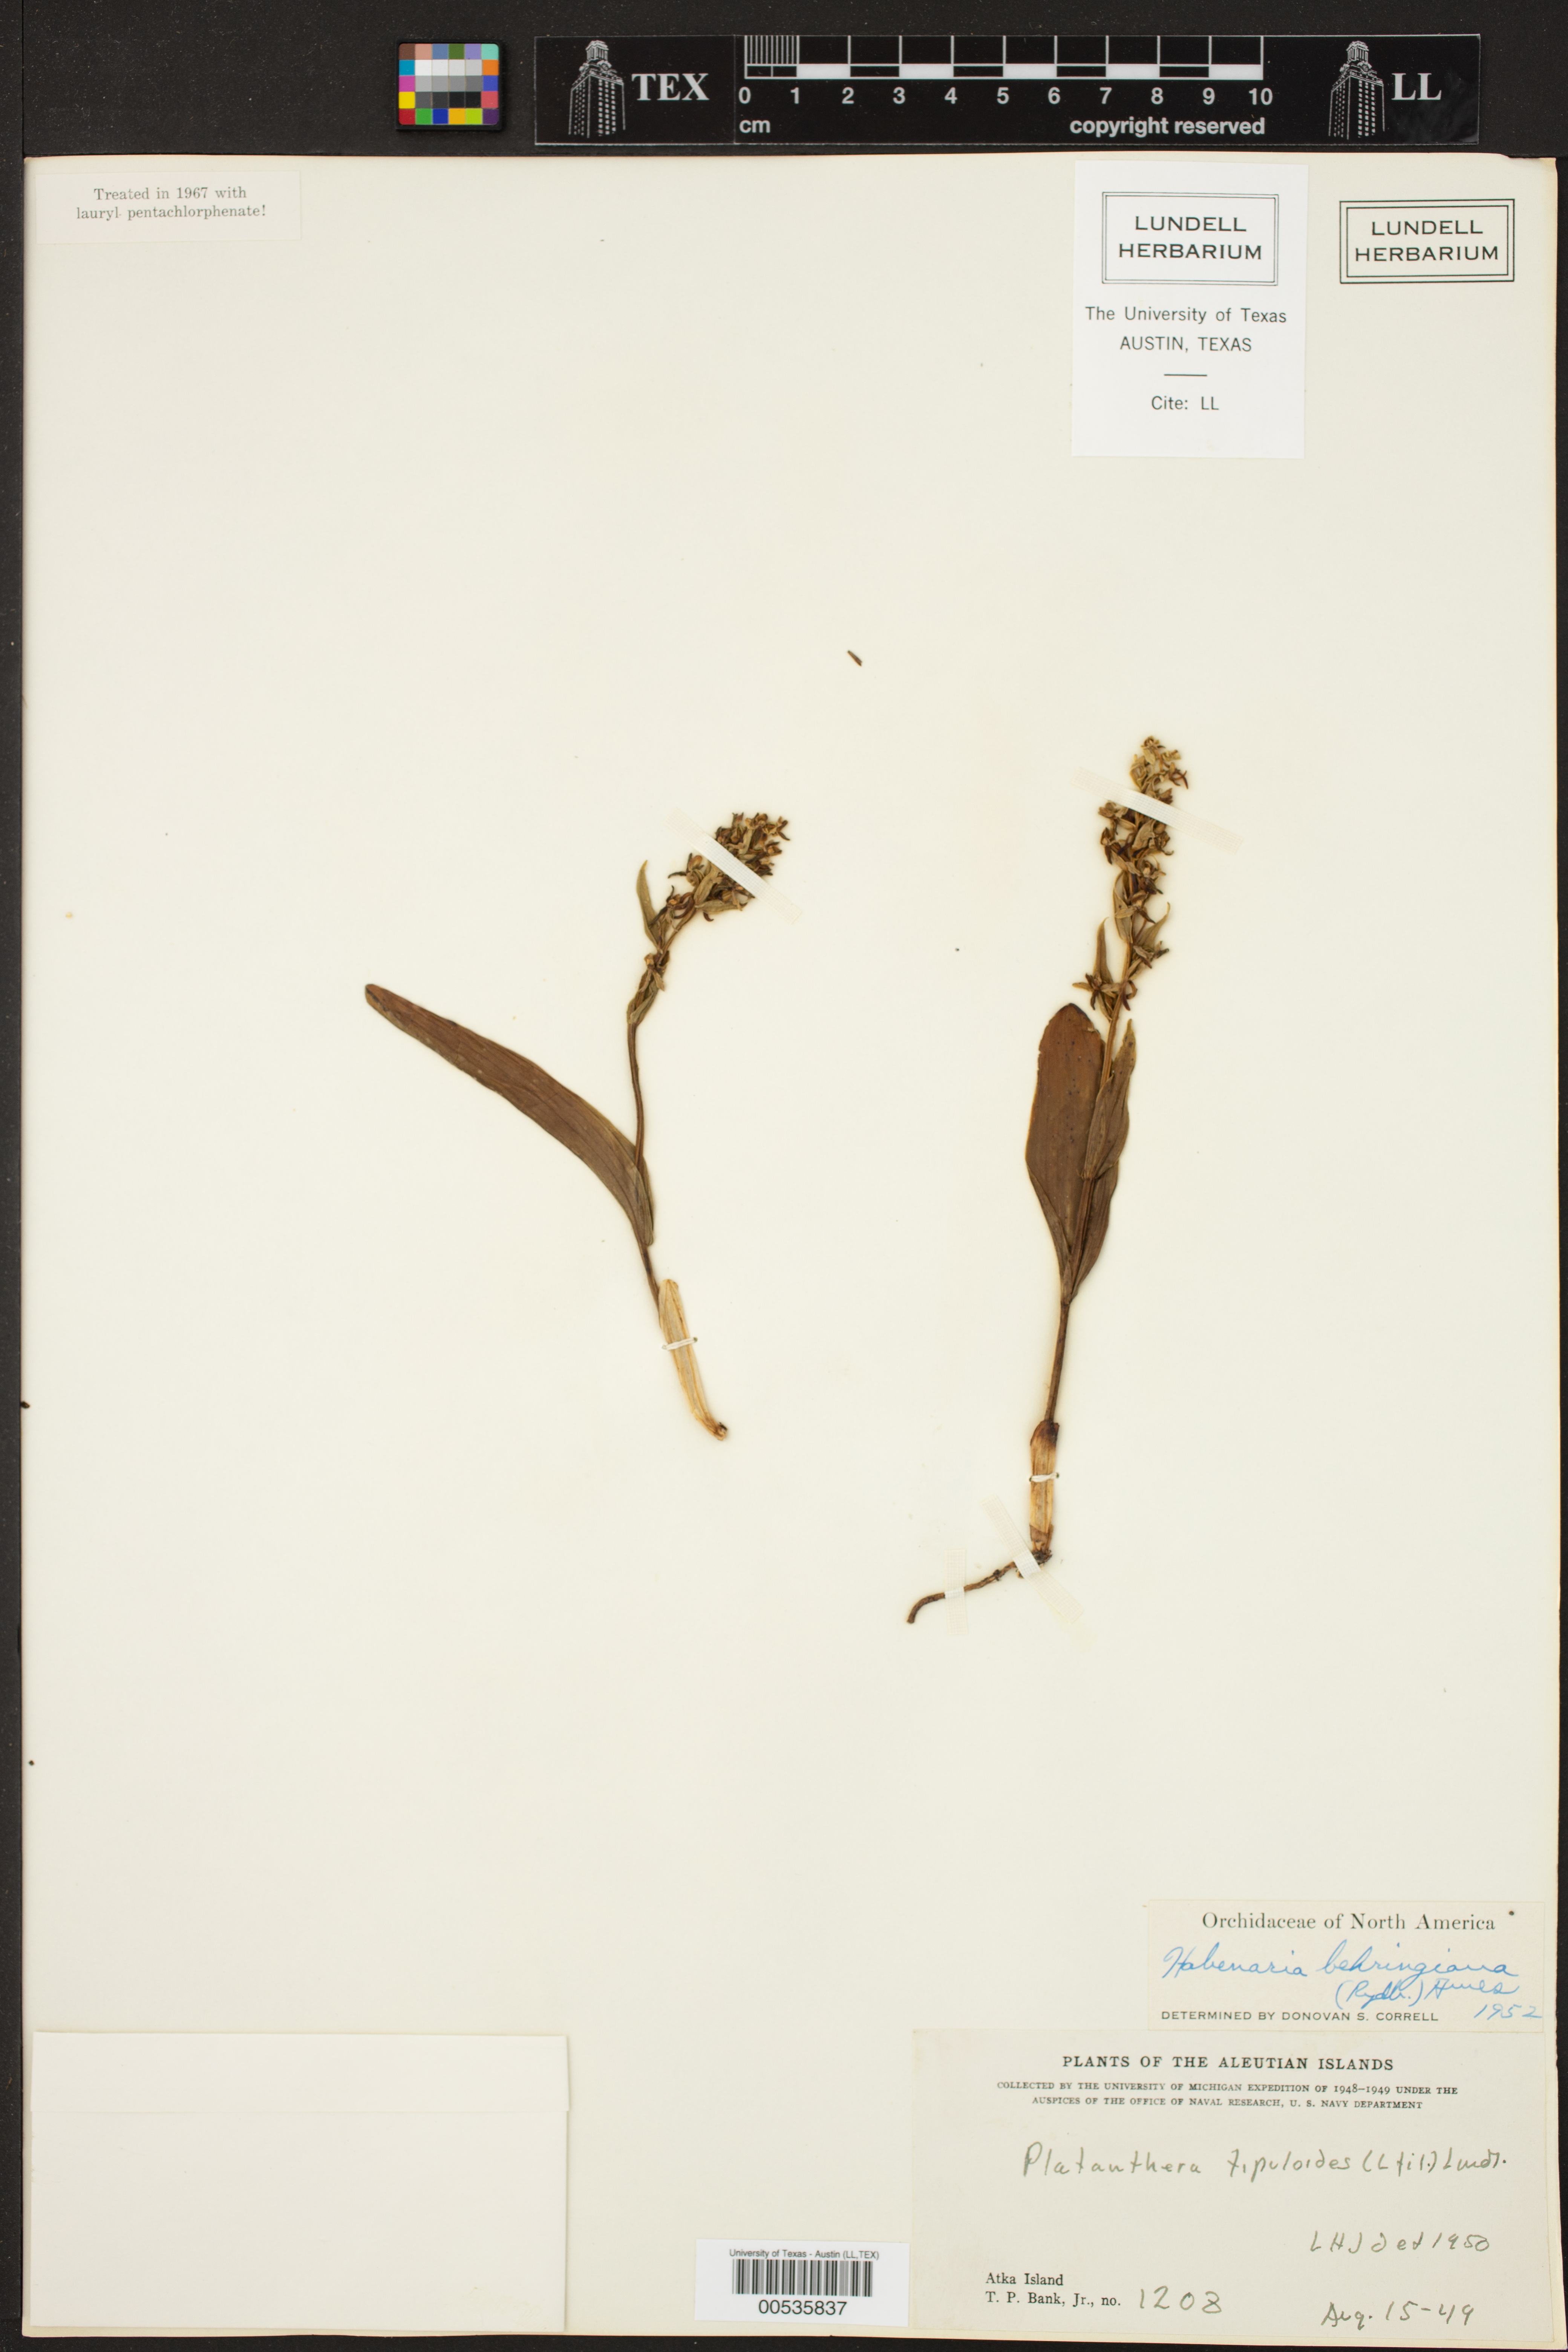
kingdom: Plantae
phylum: Tracheophyta
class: Liliopsida
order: Asparagales
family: Orchidaceae
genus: Habenaria
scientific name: Habenaria beharensis
